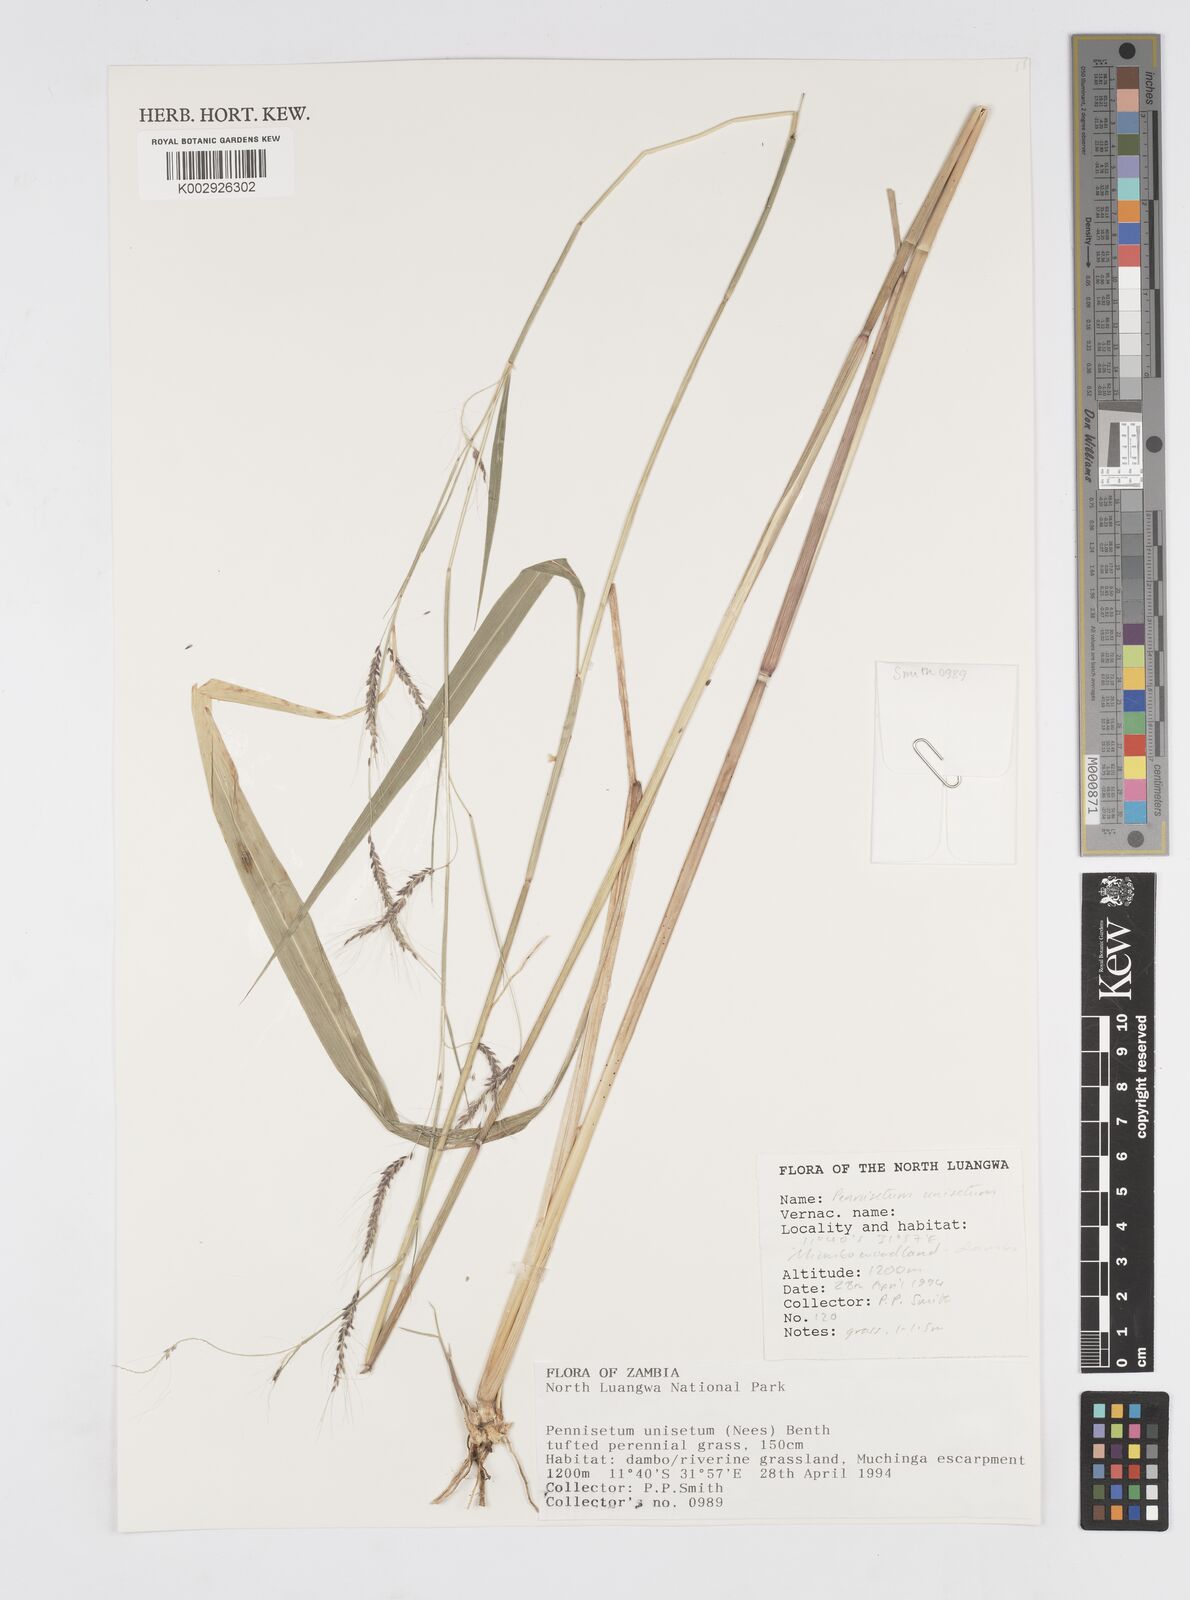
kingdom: Plantae
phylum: Tracheophyta
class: Liliopsida
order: Poales
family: Poaceae
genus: Cenchrus
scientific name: Cenchrus unisetus
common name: Natal grass
